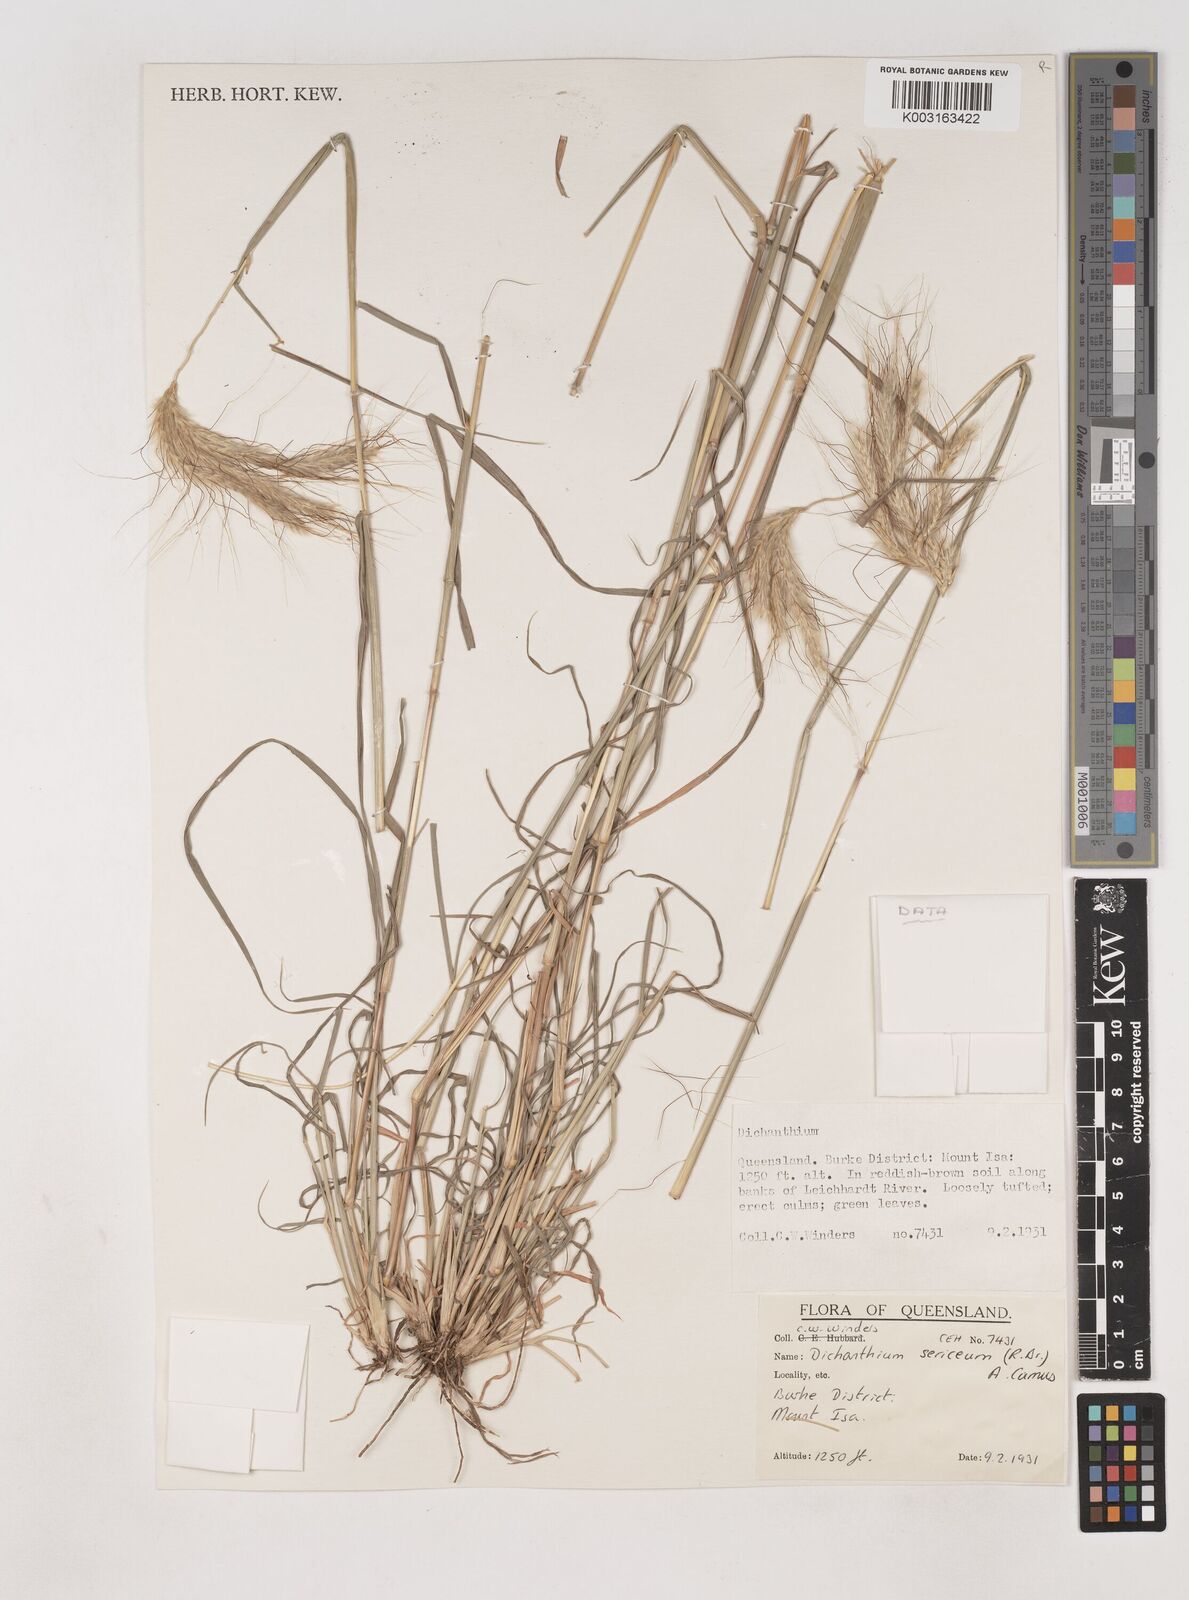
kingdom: Plantae
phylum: Tracheophyta
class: Liliopsida
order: Poales
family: Poaceae
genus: Dichanthium
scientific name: Dichanthium sericeum
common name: Silky bluestem
